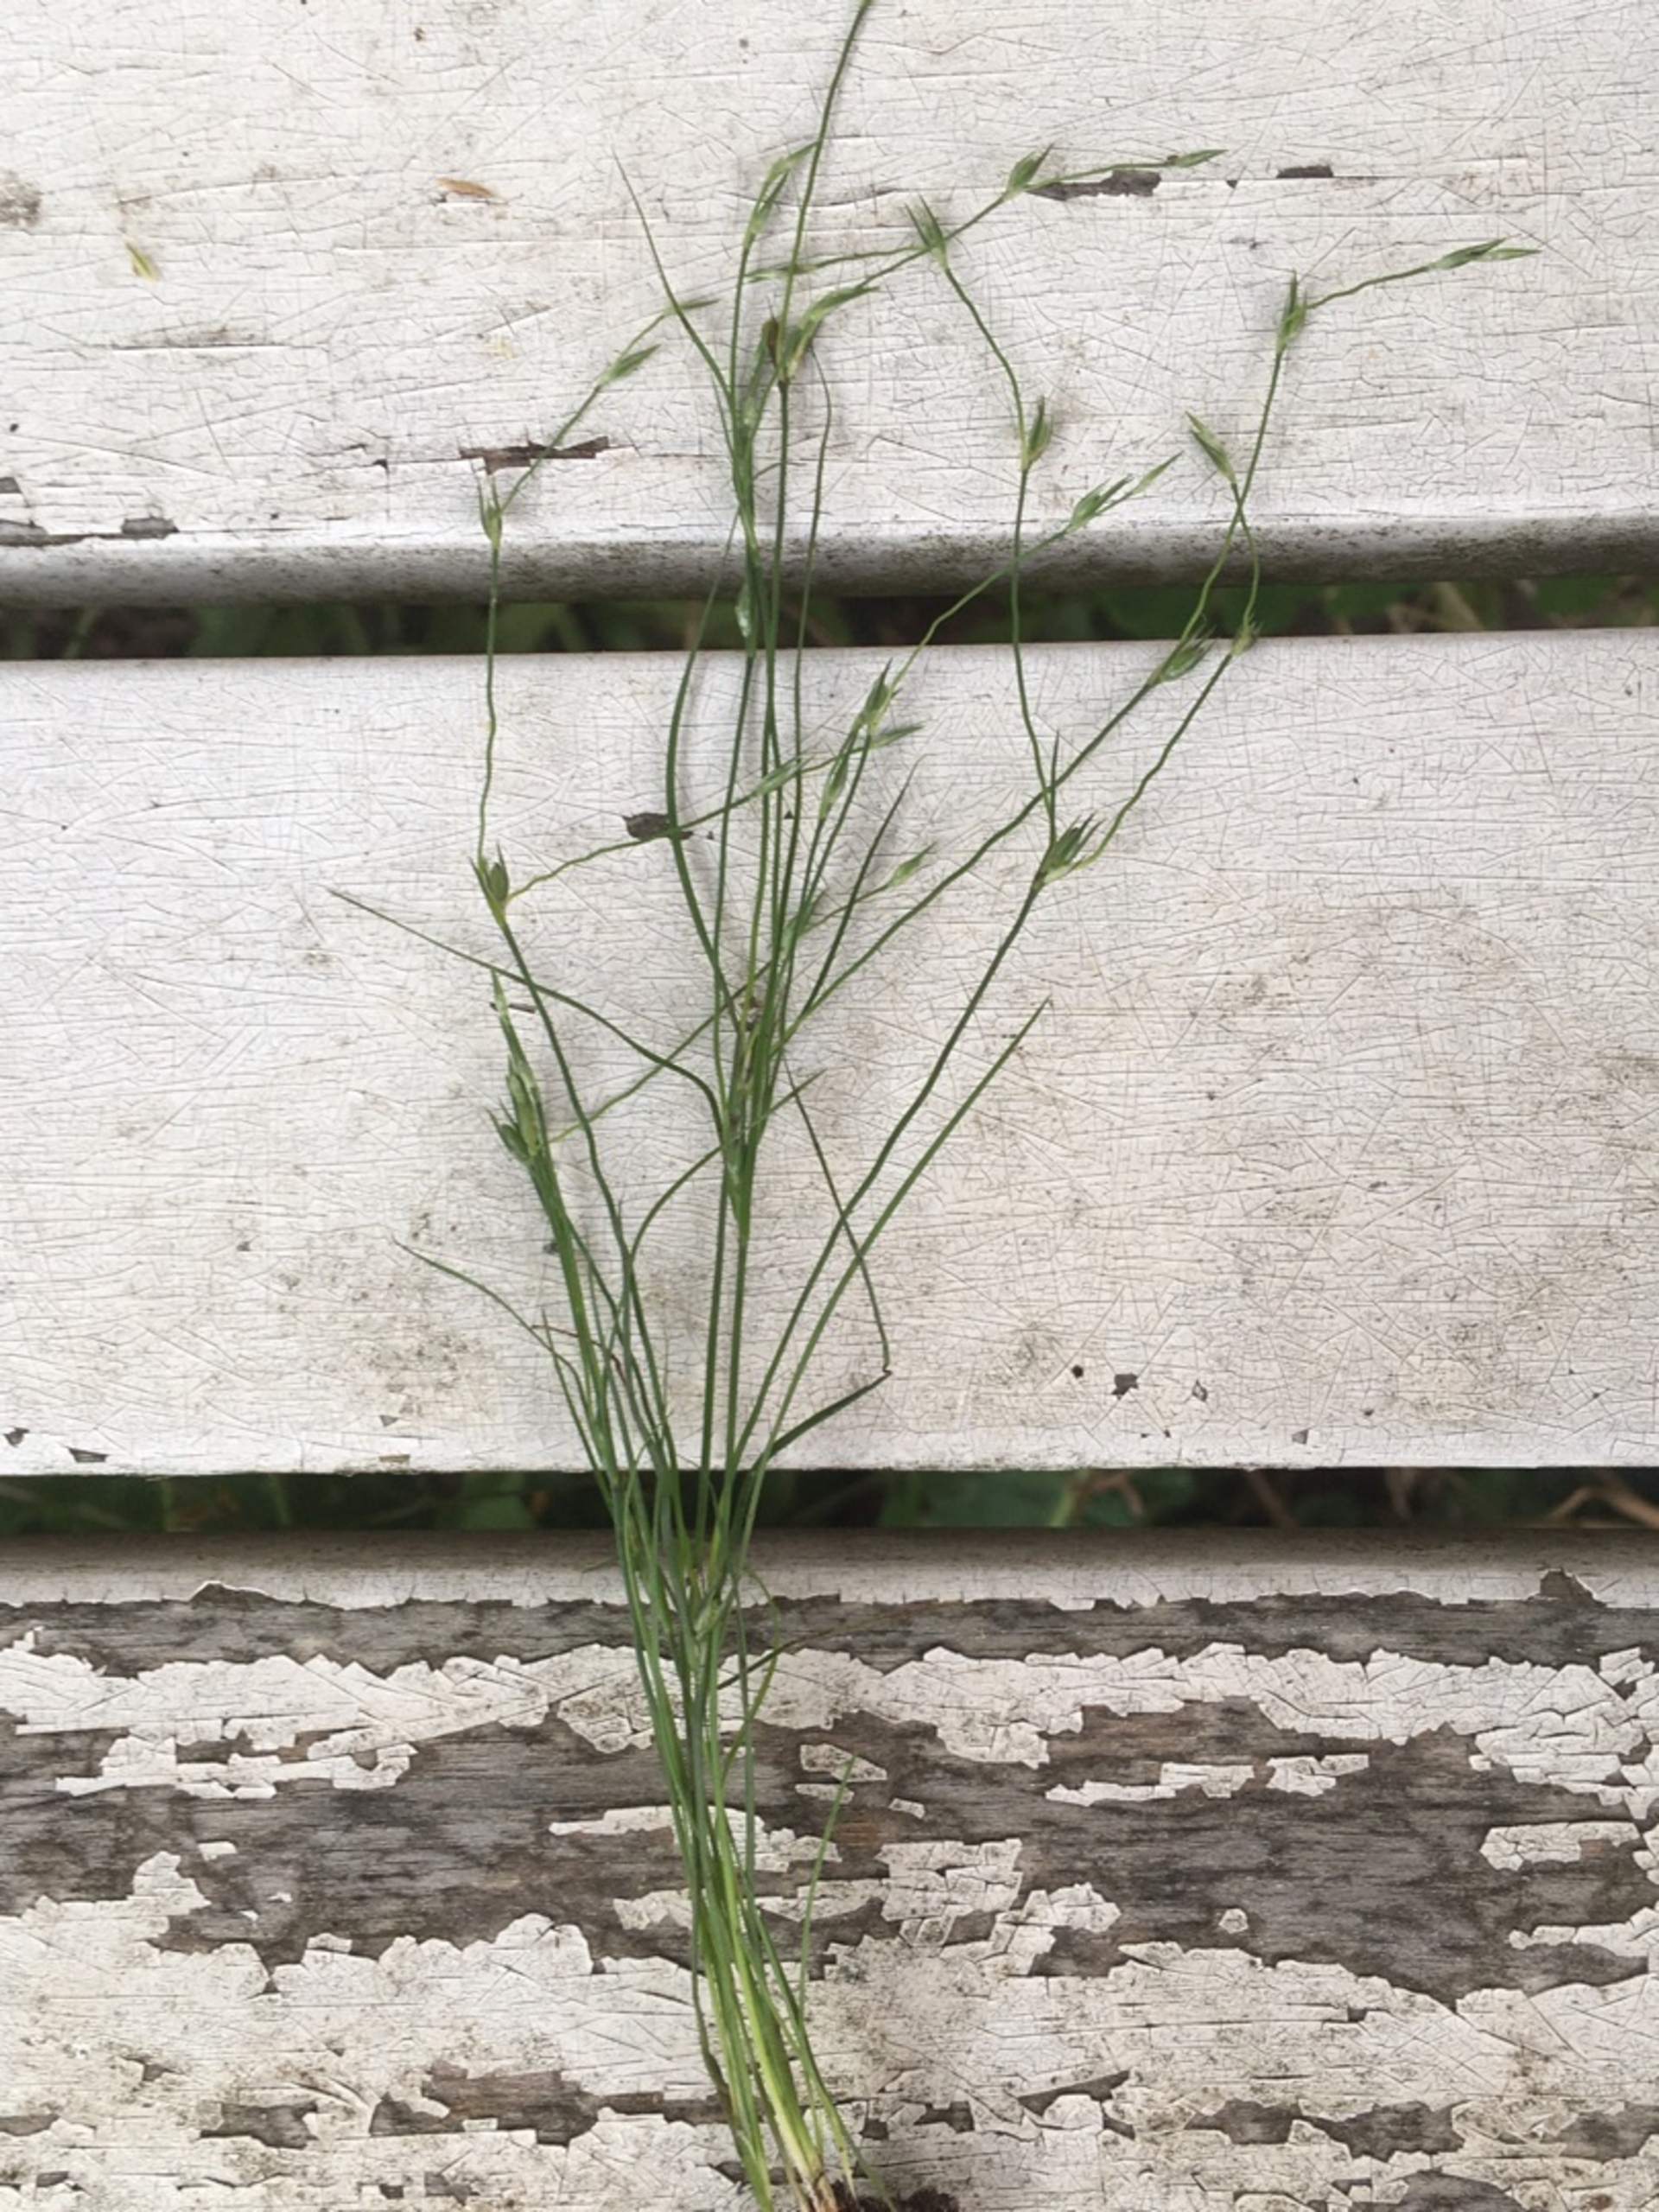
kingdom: Plantae
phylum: Tracheophyta
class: Liliopsida
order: Poales
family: Juncaceae
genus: Juncus
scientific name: Juncus bufonius
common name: Tudse-siv
